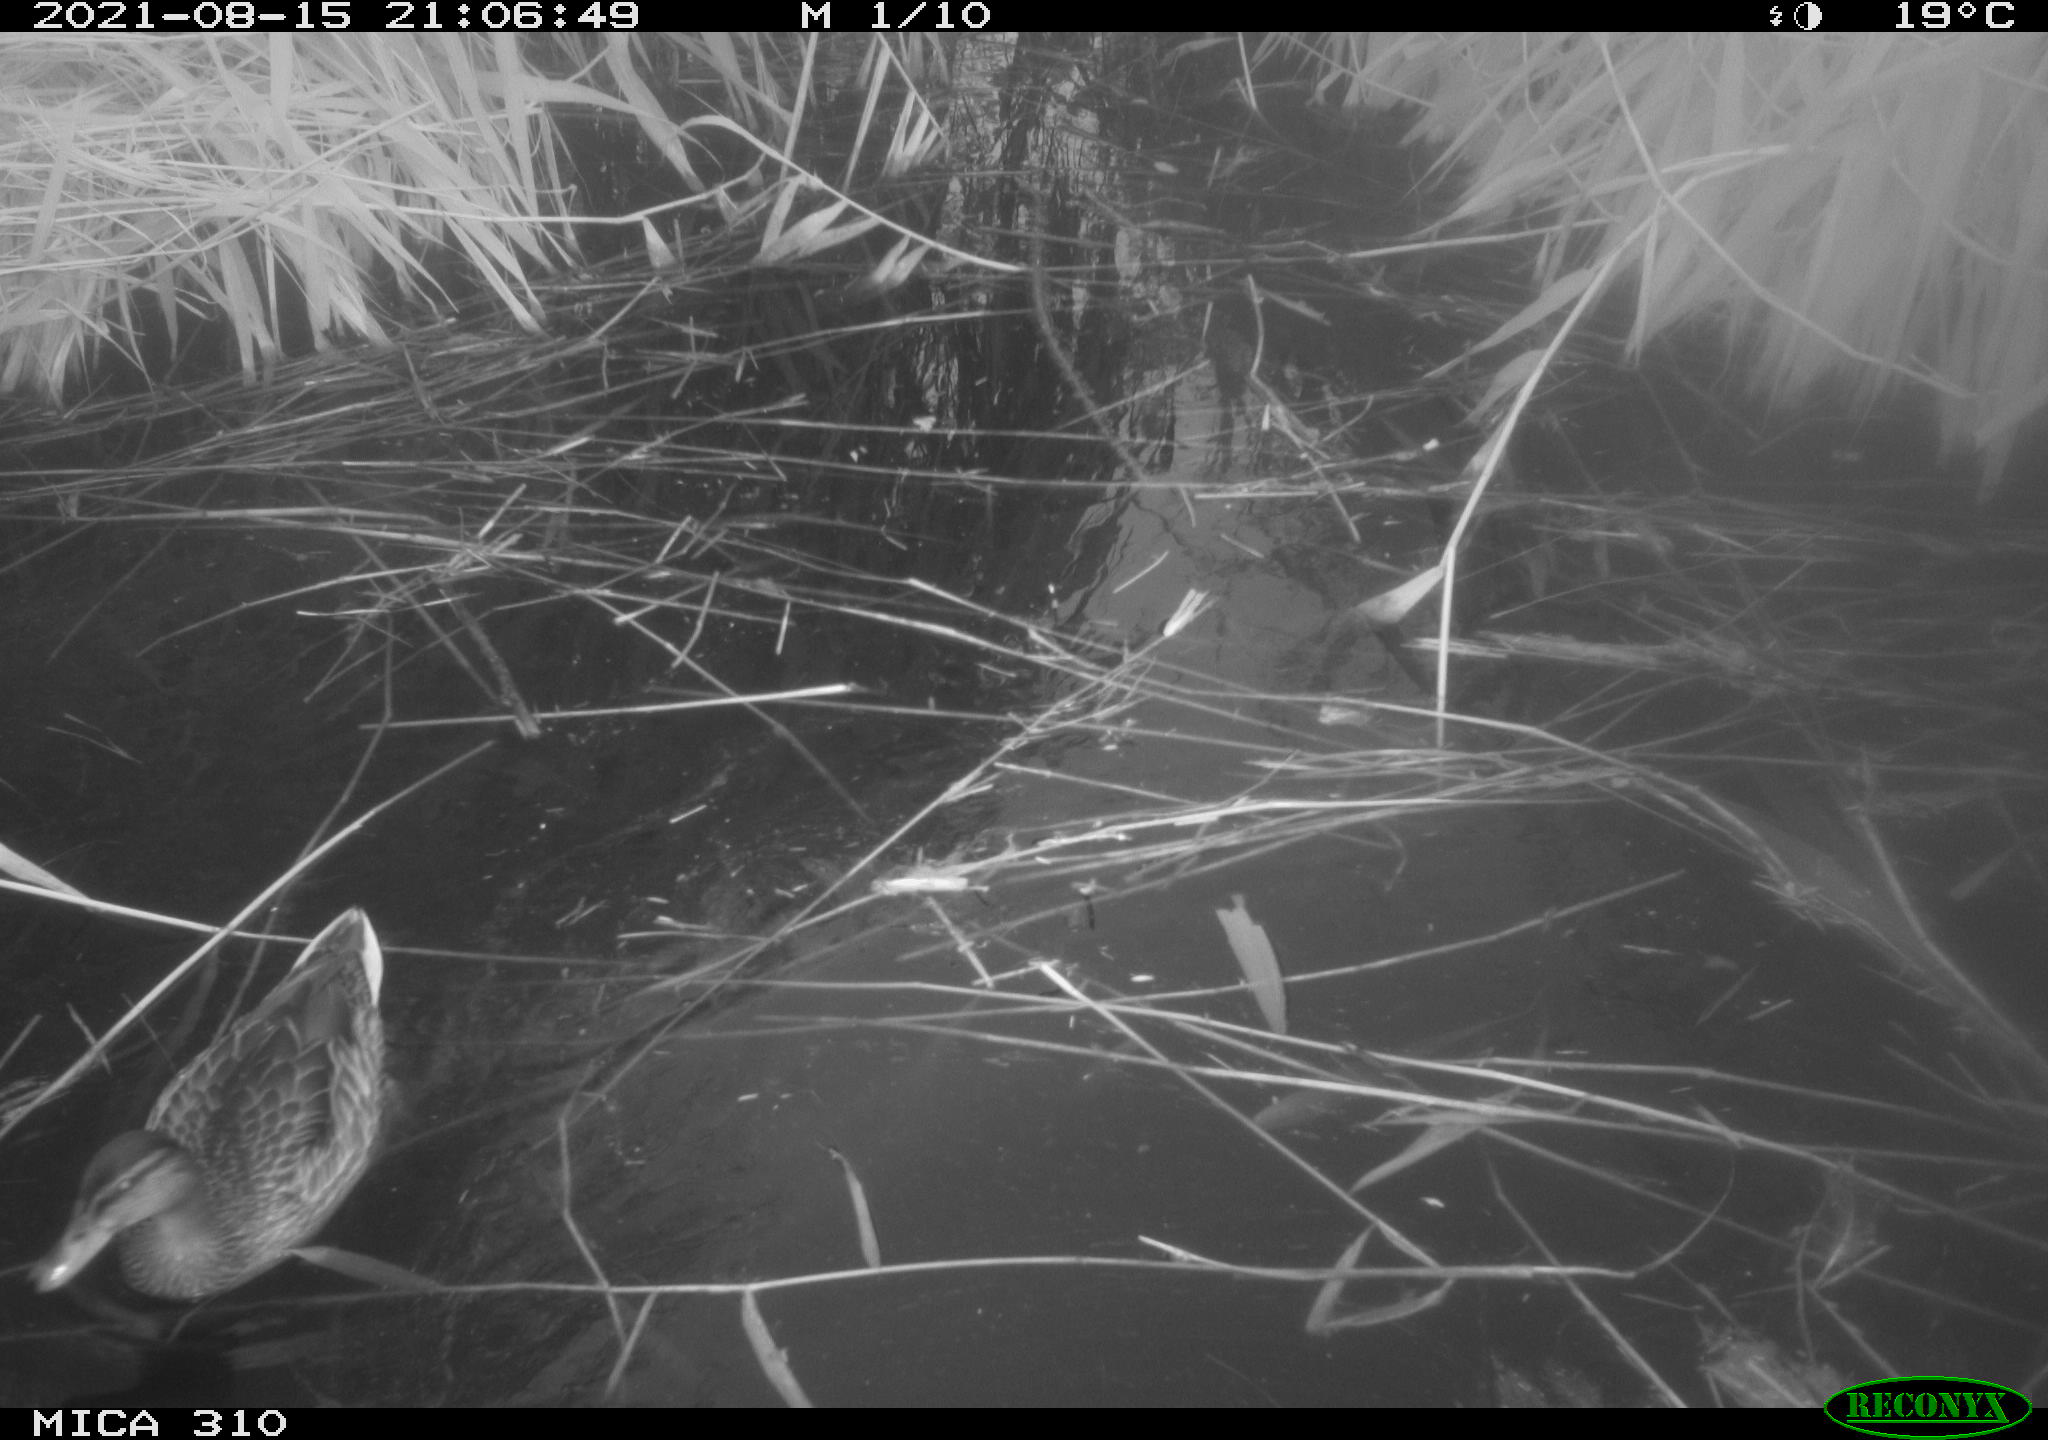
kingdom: Animalia
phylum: Chordata
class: Aves
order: Anseriformes
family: Anatidae
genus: Anas
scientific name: Anas platyrhynchos
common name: Mallard
